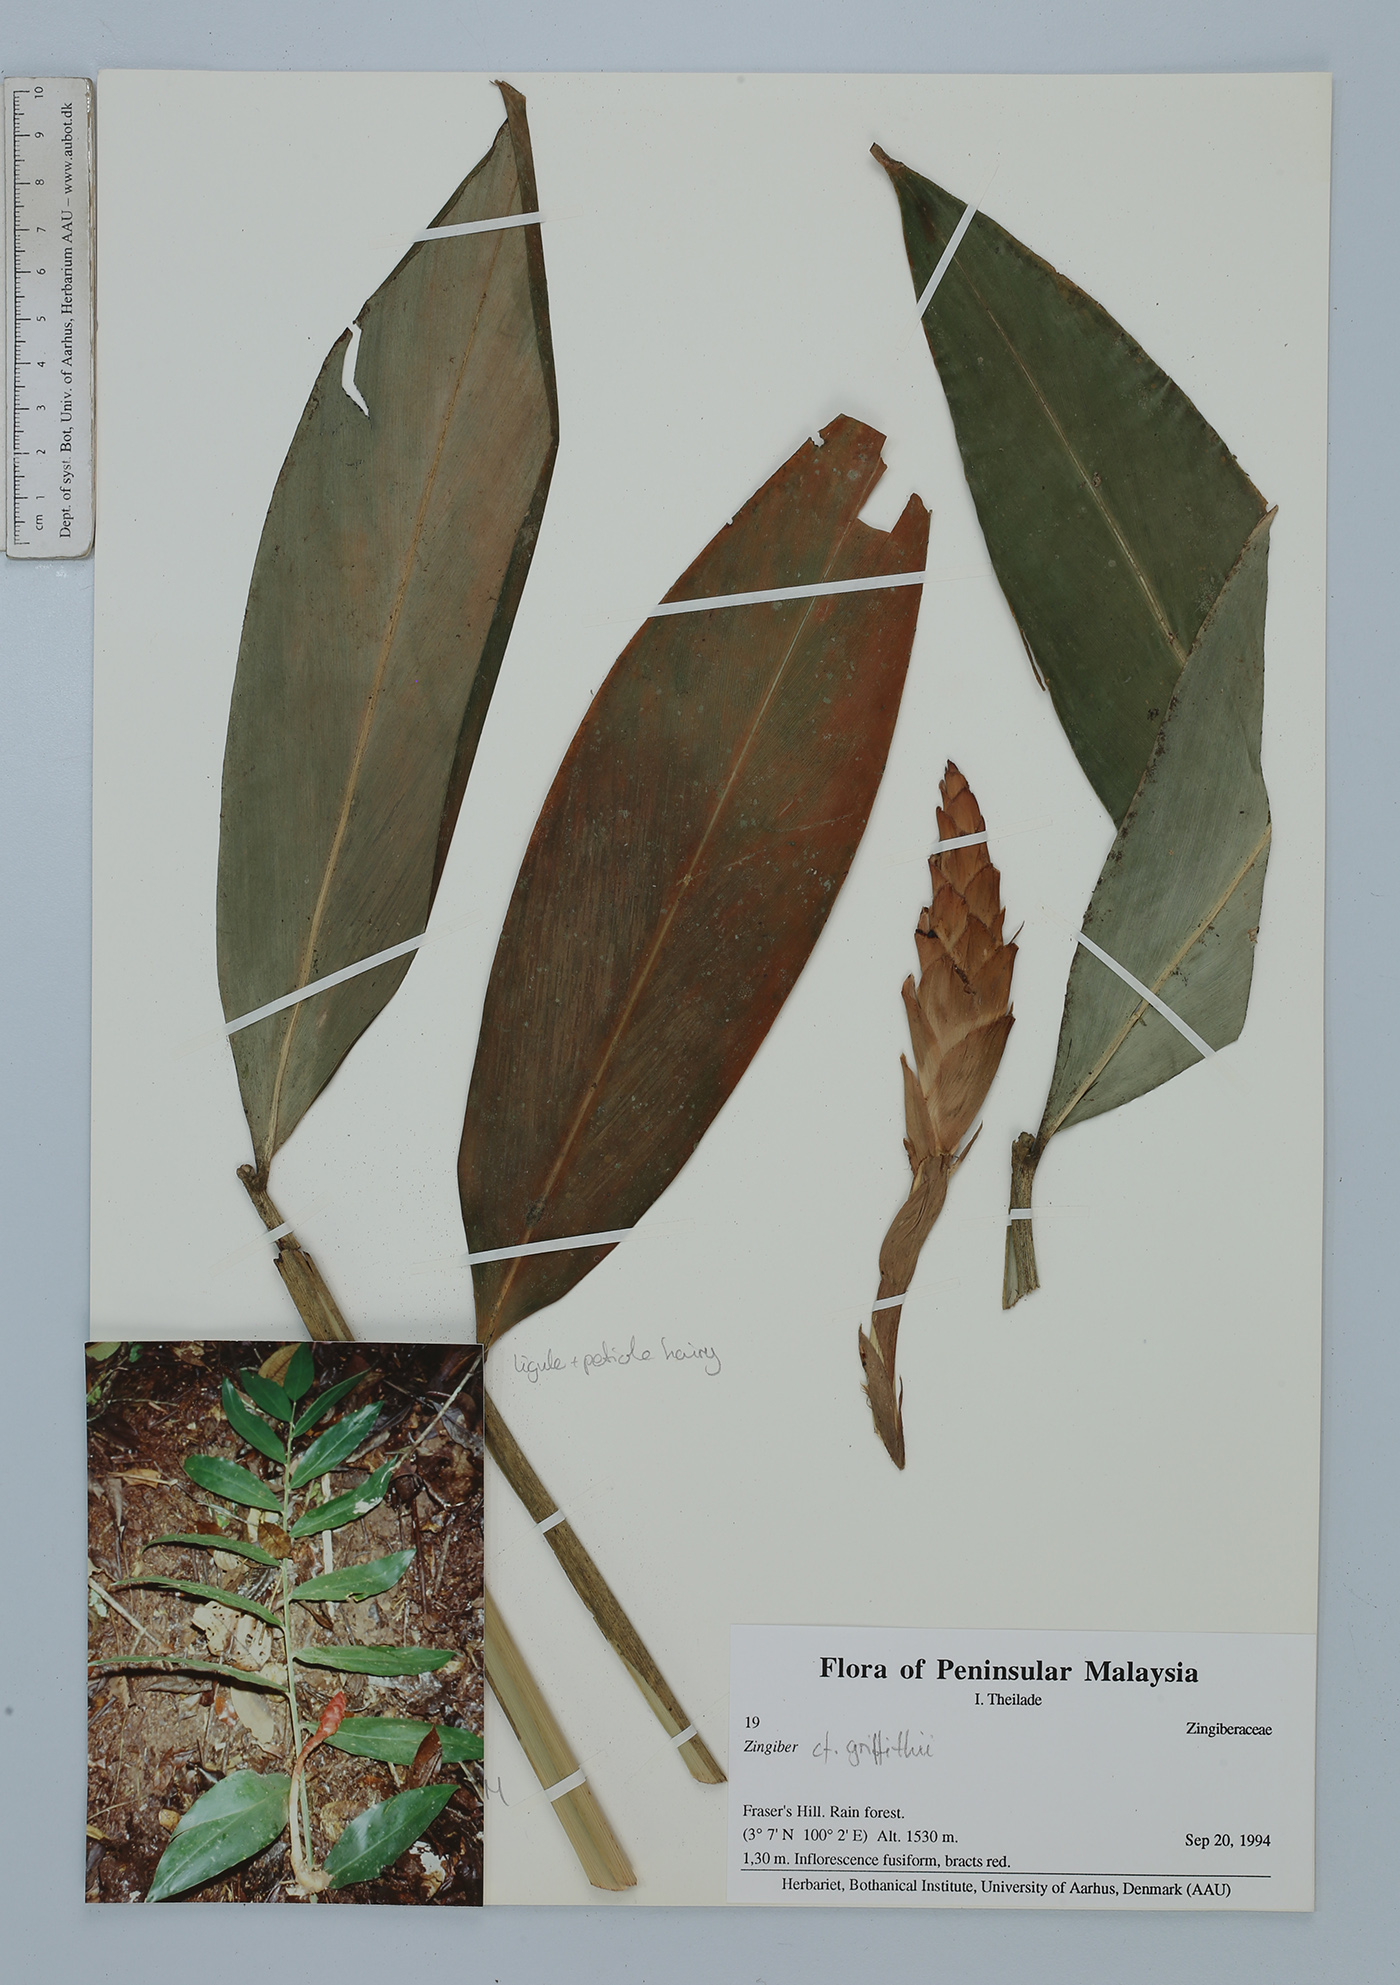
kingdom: Plantae
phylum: Tracheophyta
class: Liliopsida
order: Zingiberales
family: Zingiberaceae
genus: Zingiber
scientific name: Zingiber griffithii
